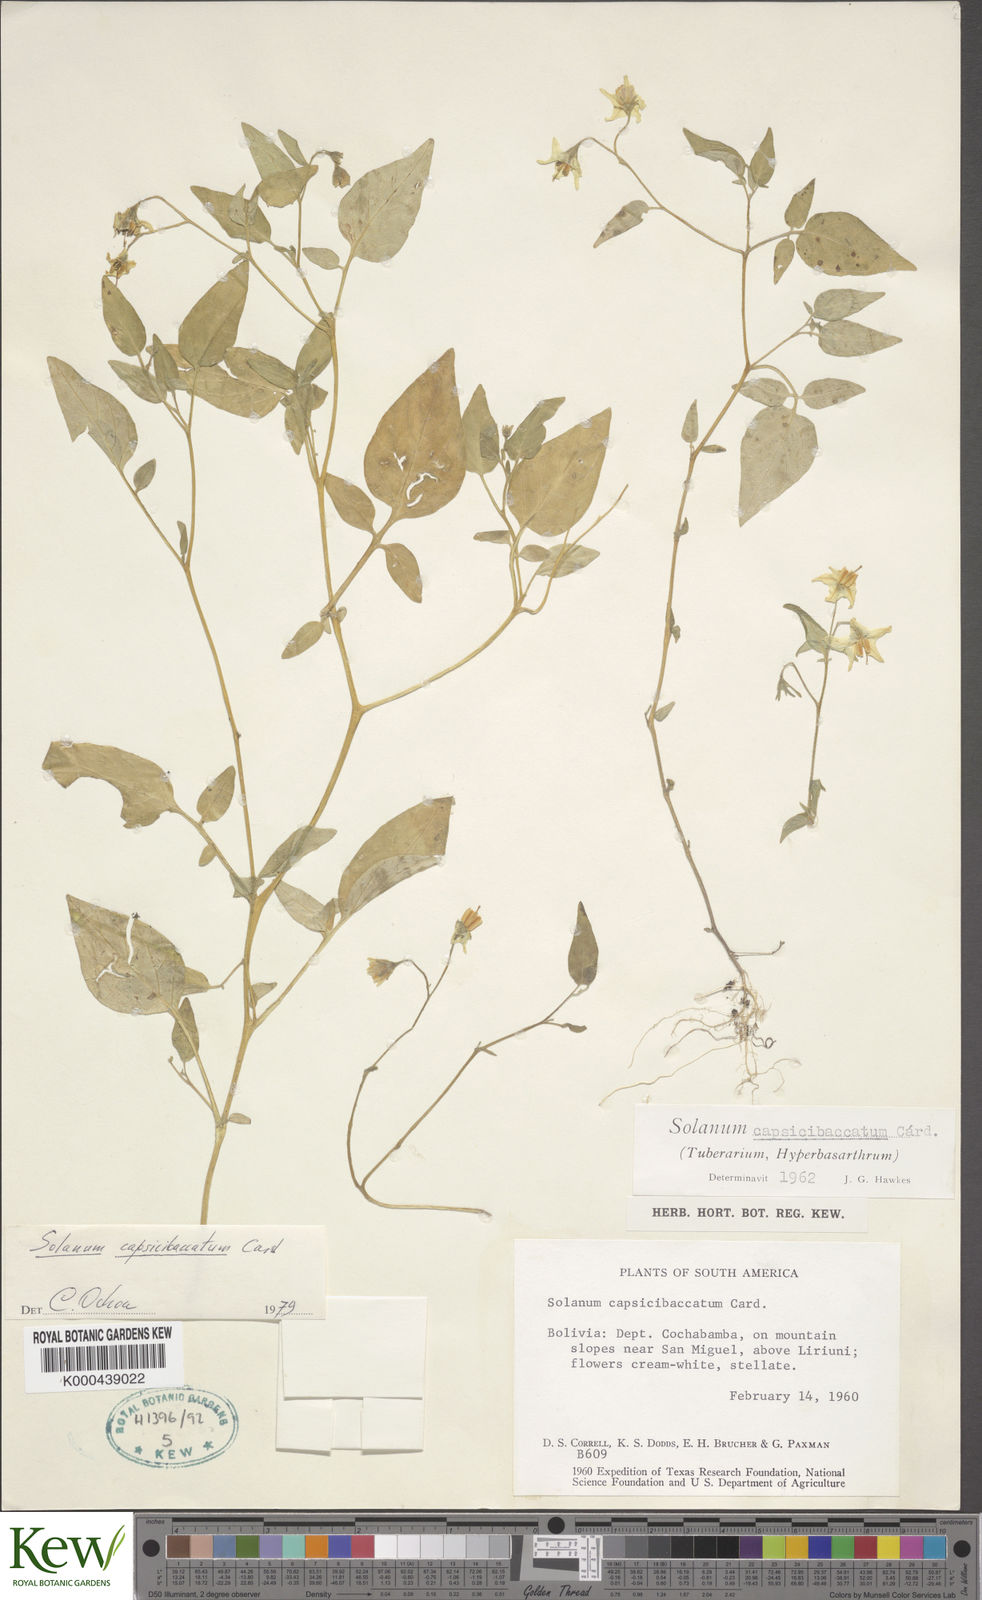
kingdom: Plantae
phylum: Tracheophyta
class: Magnoliopsida
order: Solanales
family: Solanaceae
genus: Solanum
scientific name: Solanum capsibaccatum
